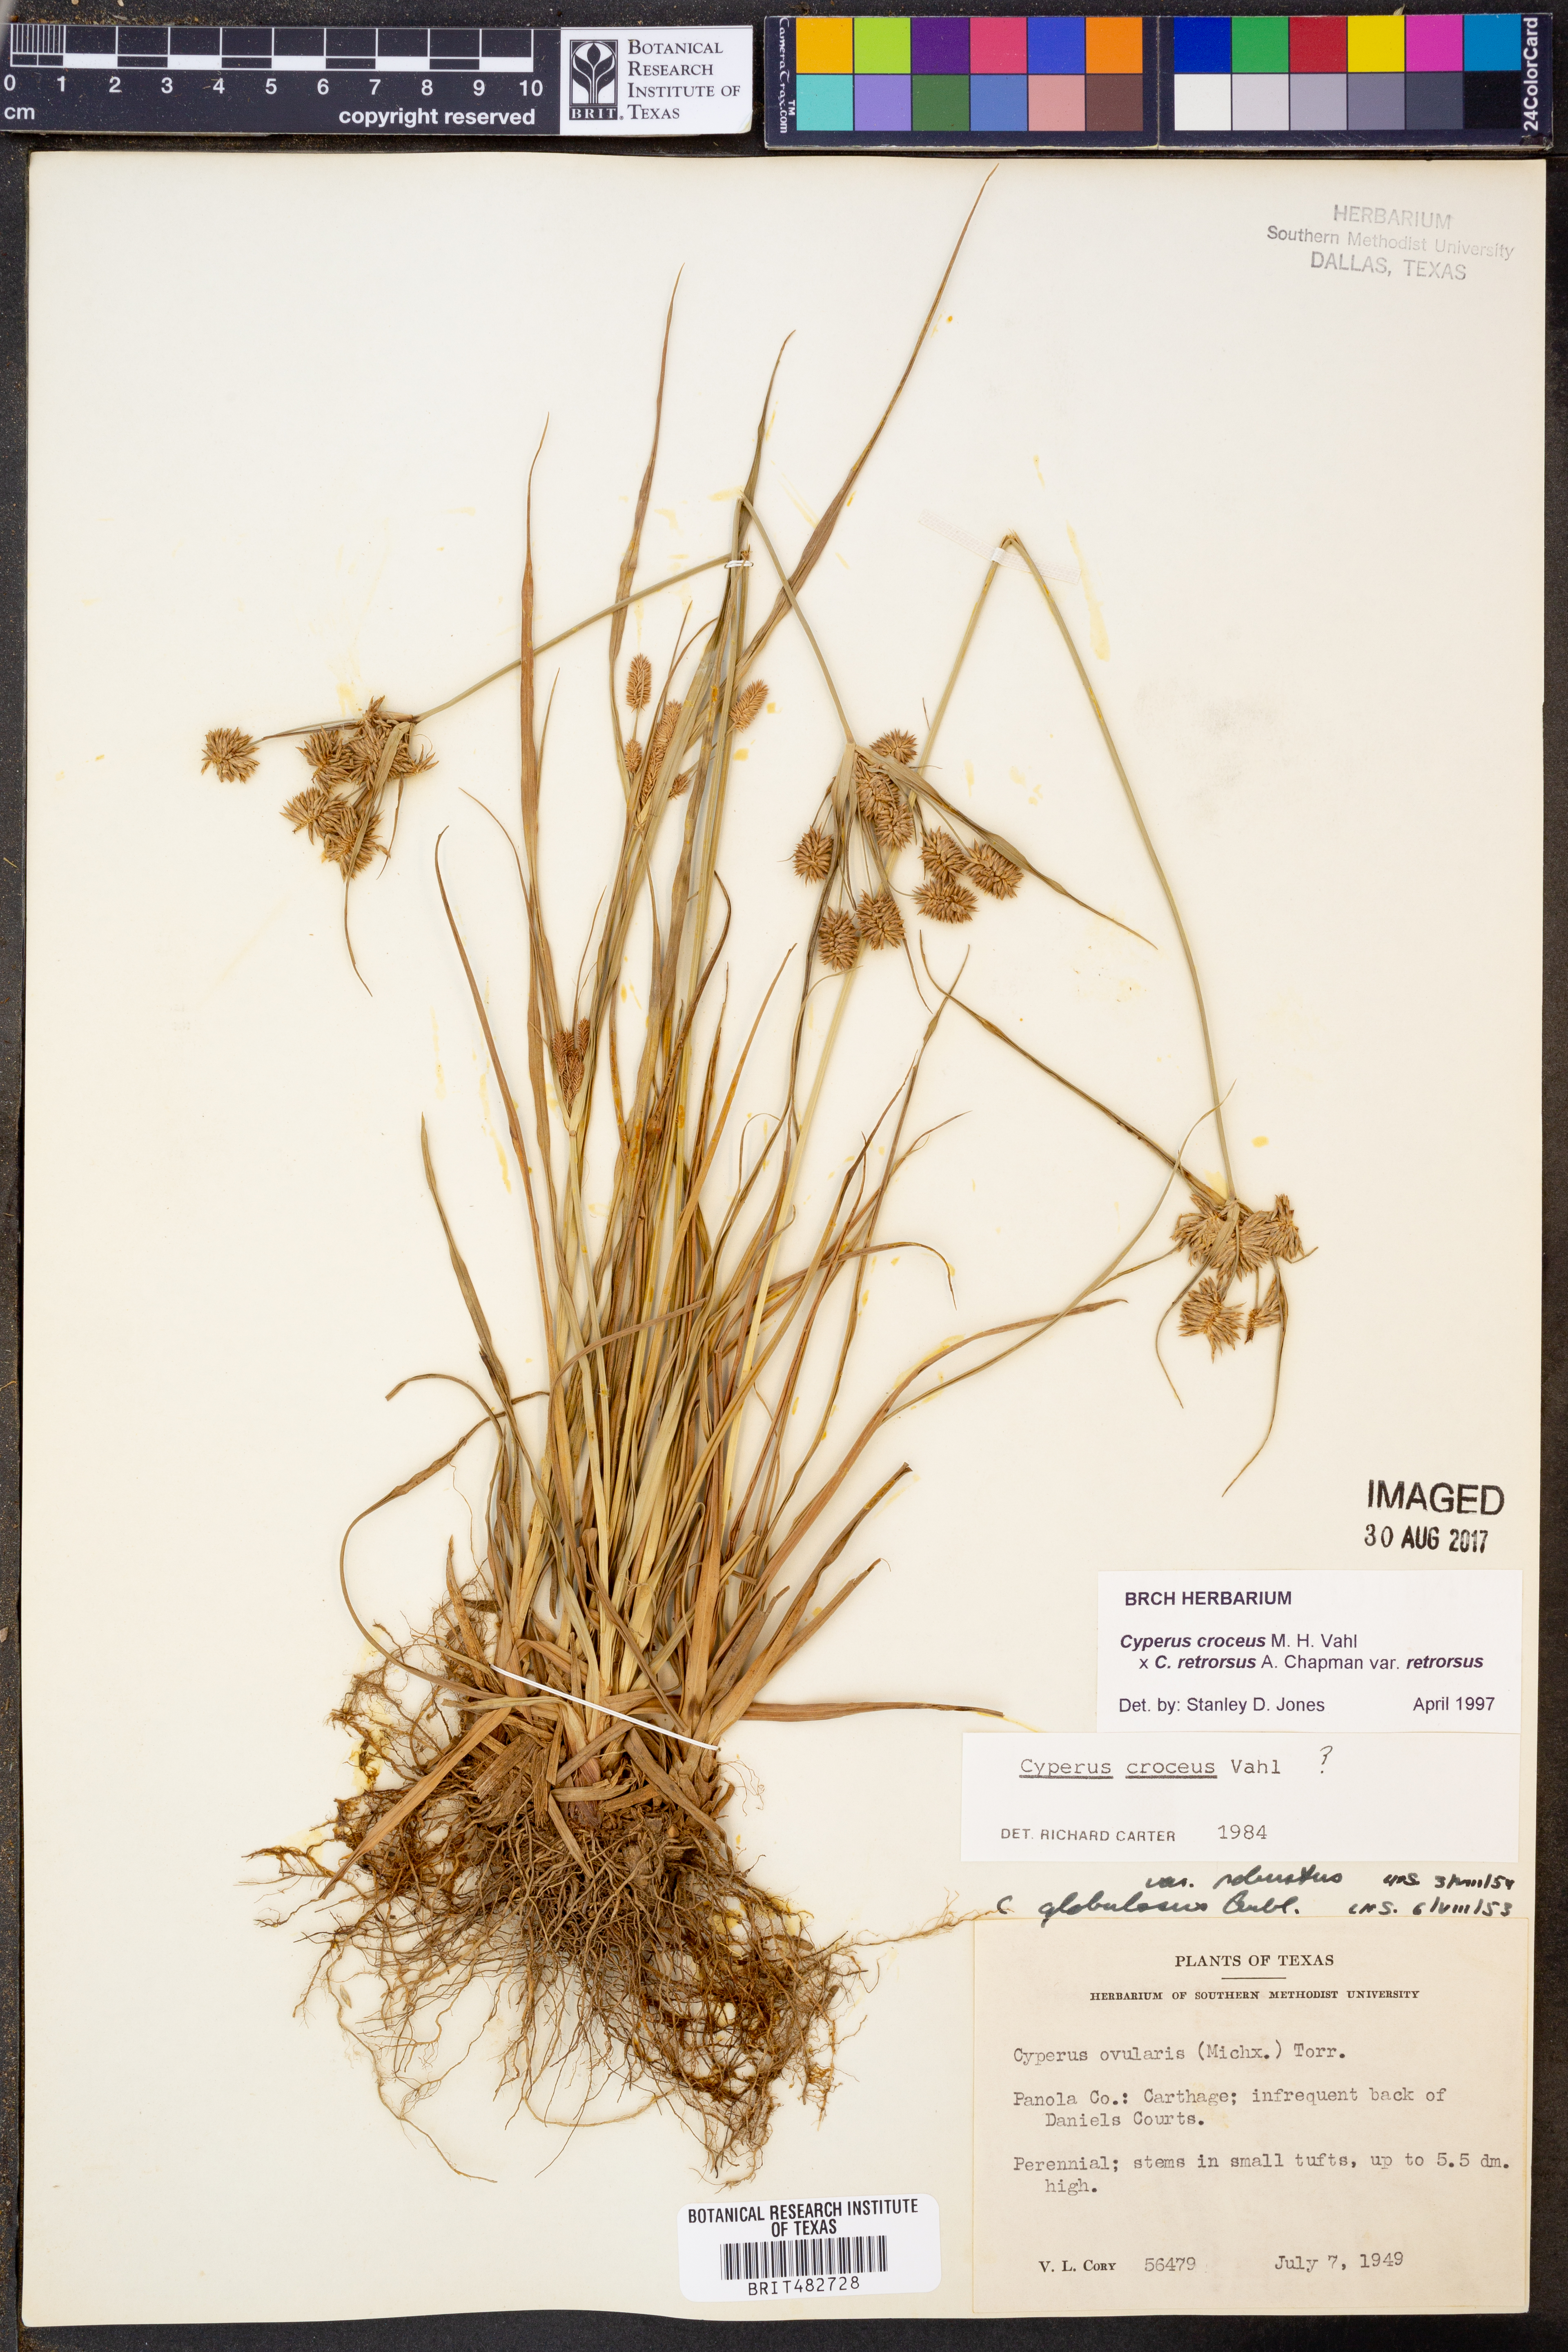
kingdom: Plantae
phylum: Tracheophyta
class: Liliopsida
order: Poales
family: Cyperaceae
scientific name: Cyperaceae
